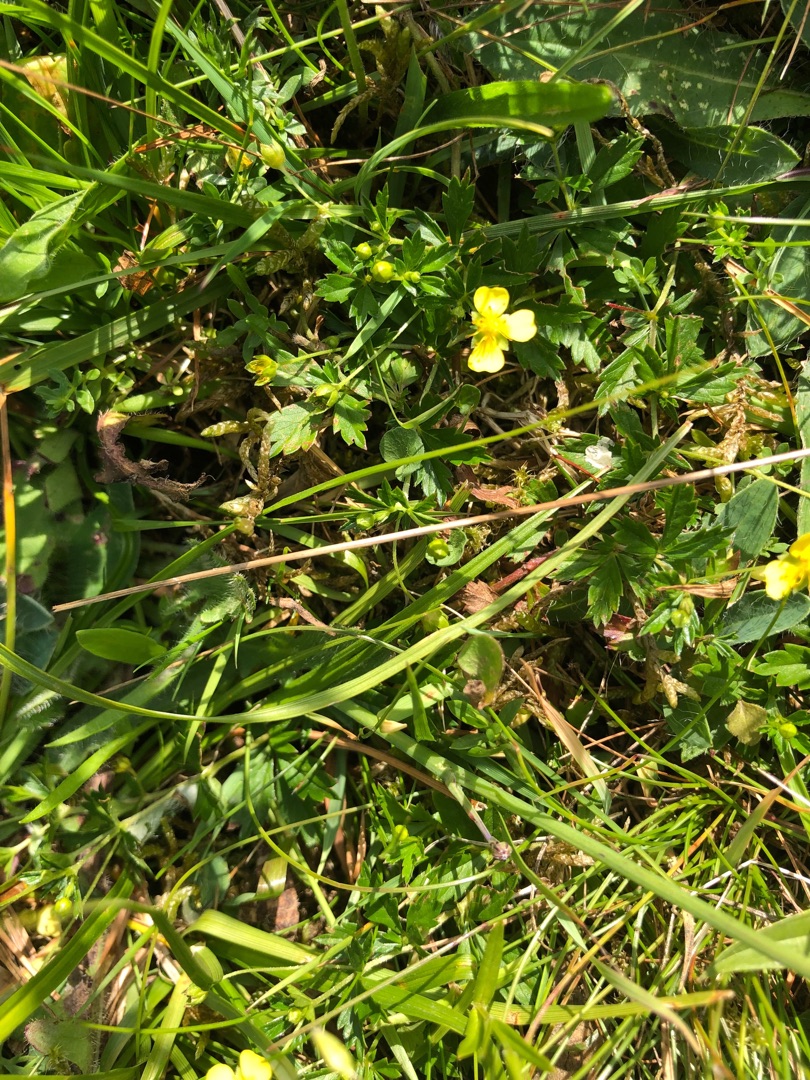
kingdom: Plantae
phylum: Tracheophyta
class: Magnoliopsida
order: Rosales
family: Rosaceae
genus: Potentilla
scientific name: Potentilla erecta
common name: Tormentil
